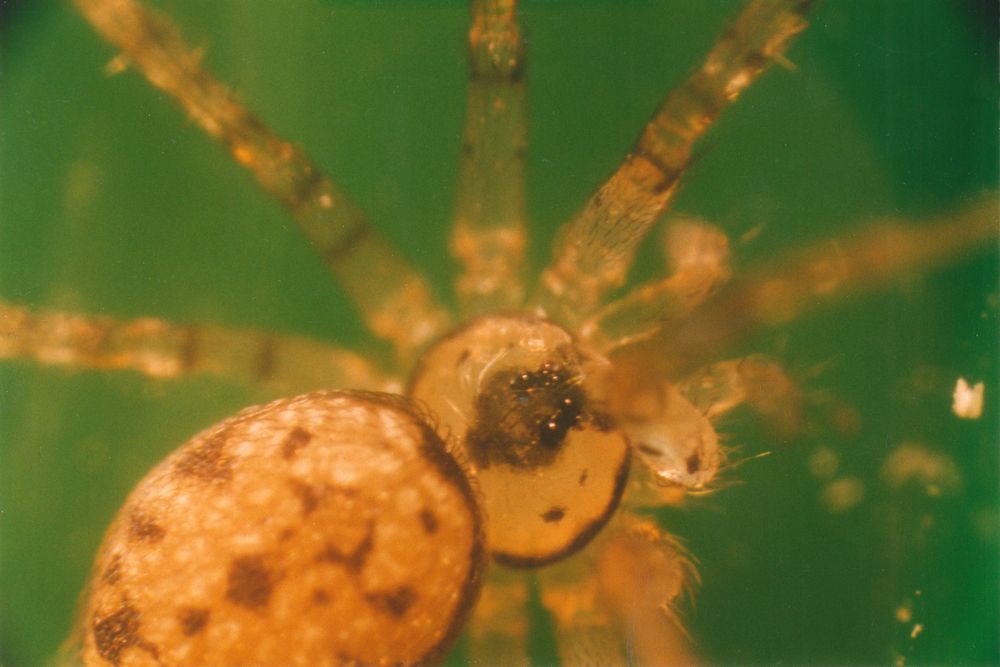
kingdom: Animalia
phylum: Arthropoda
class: Arachnida
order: Araneae
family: Oecobiidae
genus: Oecobius
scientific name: Oecobius
